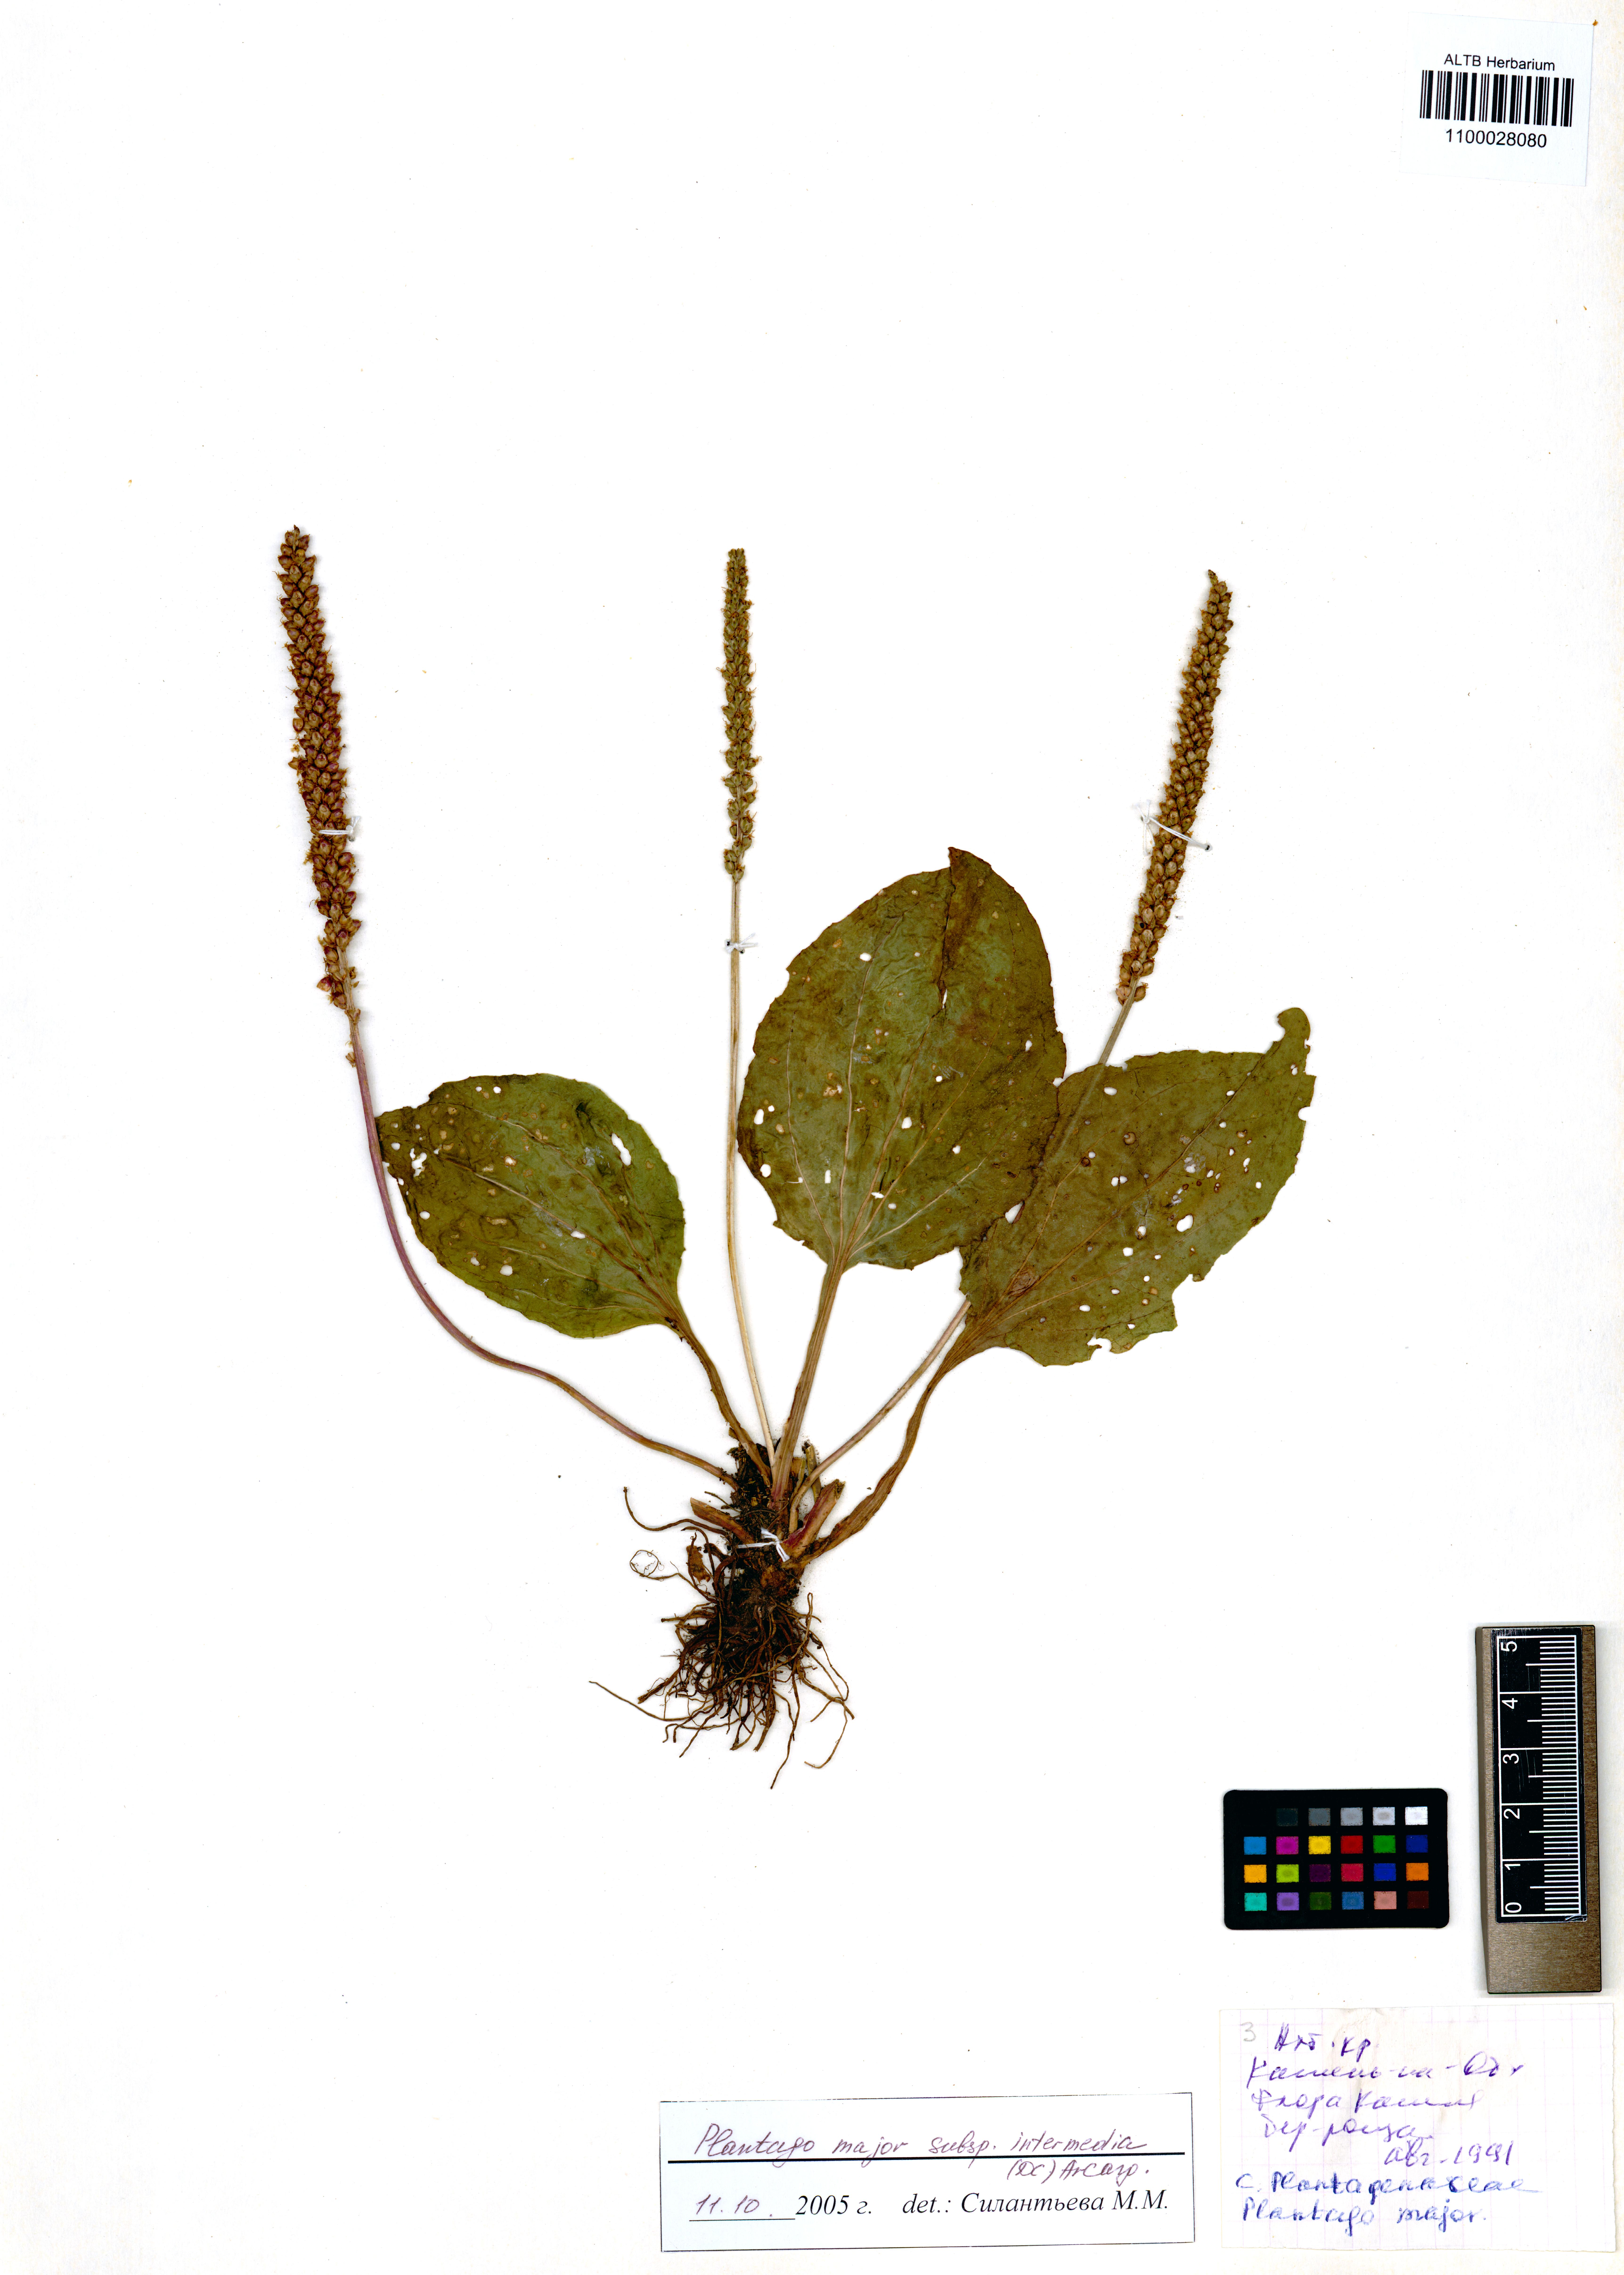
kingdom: Plantae
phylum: Tracheophyta
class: Magnoliopsida
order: Lamiales
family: Plantaginaceae
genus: Plantago
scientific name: Plantago uliginosa
